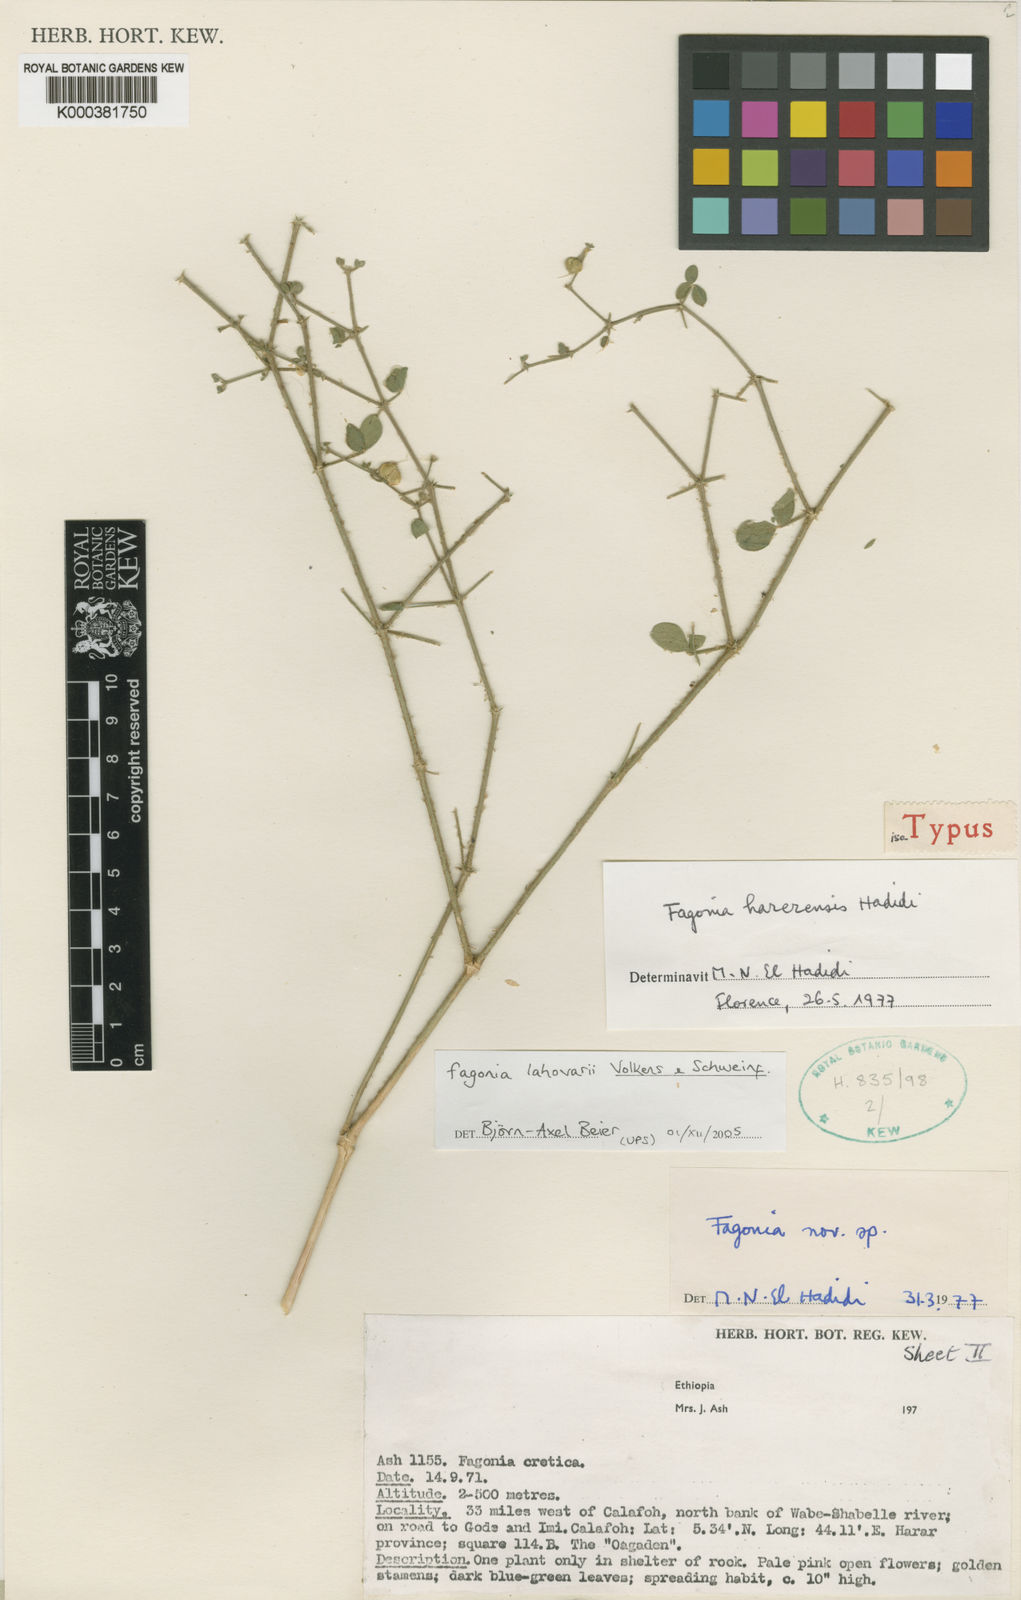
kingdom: Plantae
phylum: Tracheophyta
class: Magnoliopsida
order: Zygophyllales
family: Zygophyllaceae
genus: Fagonia
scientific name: Fagonia lahovarii
